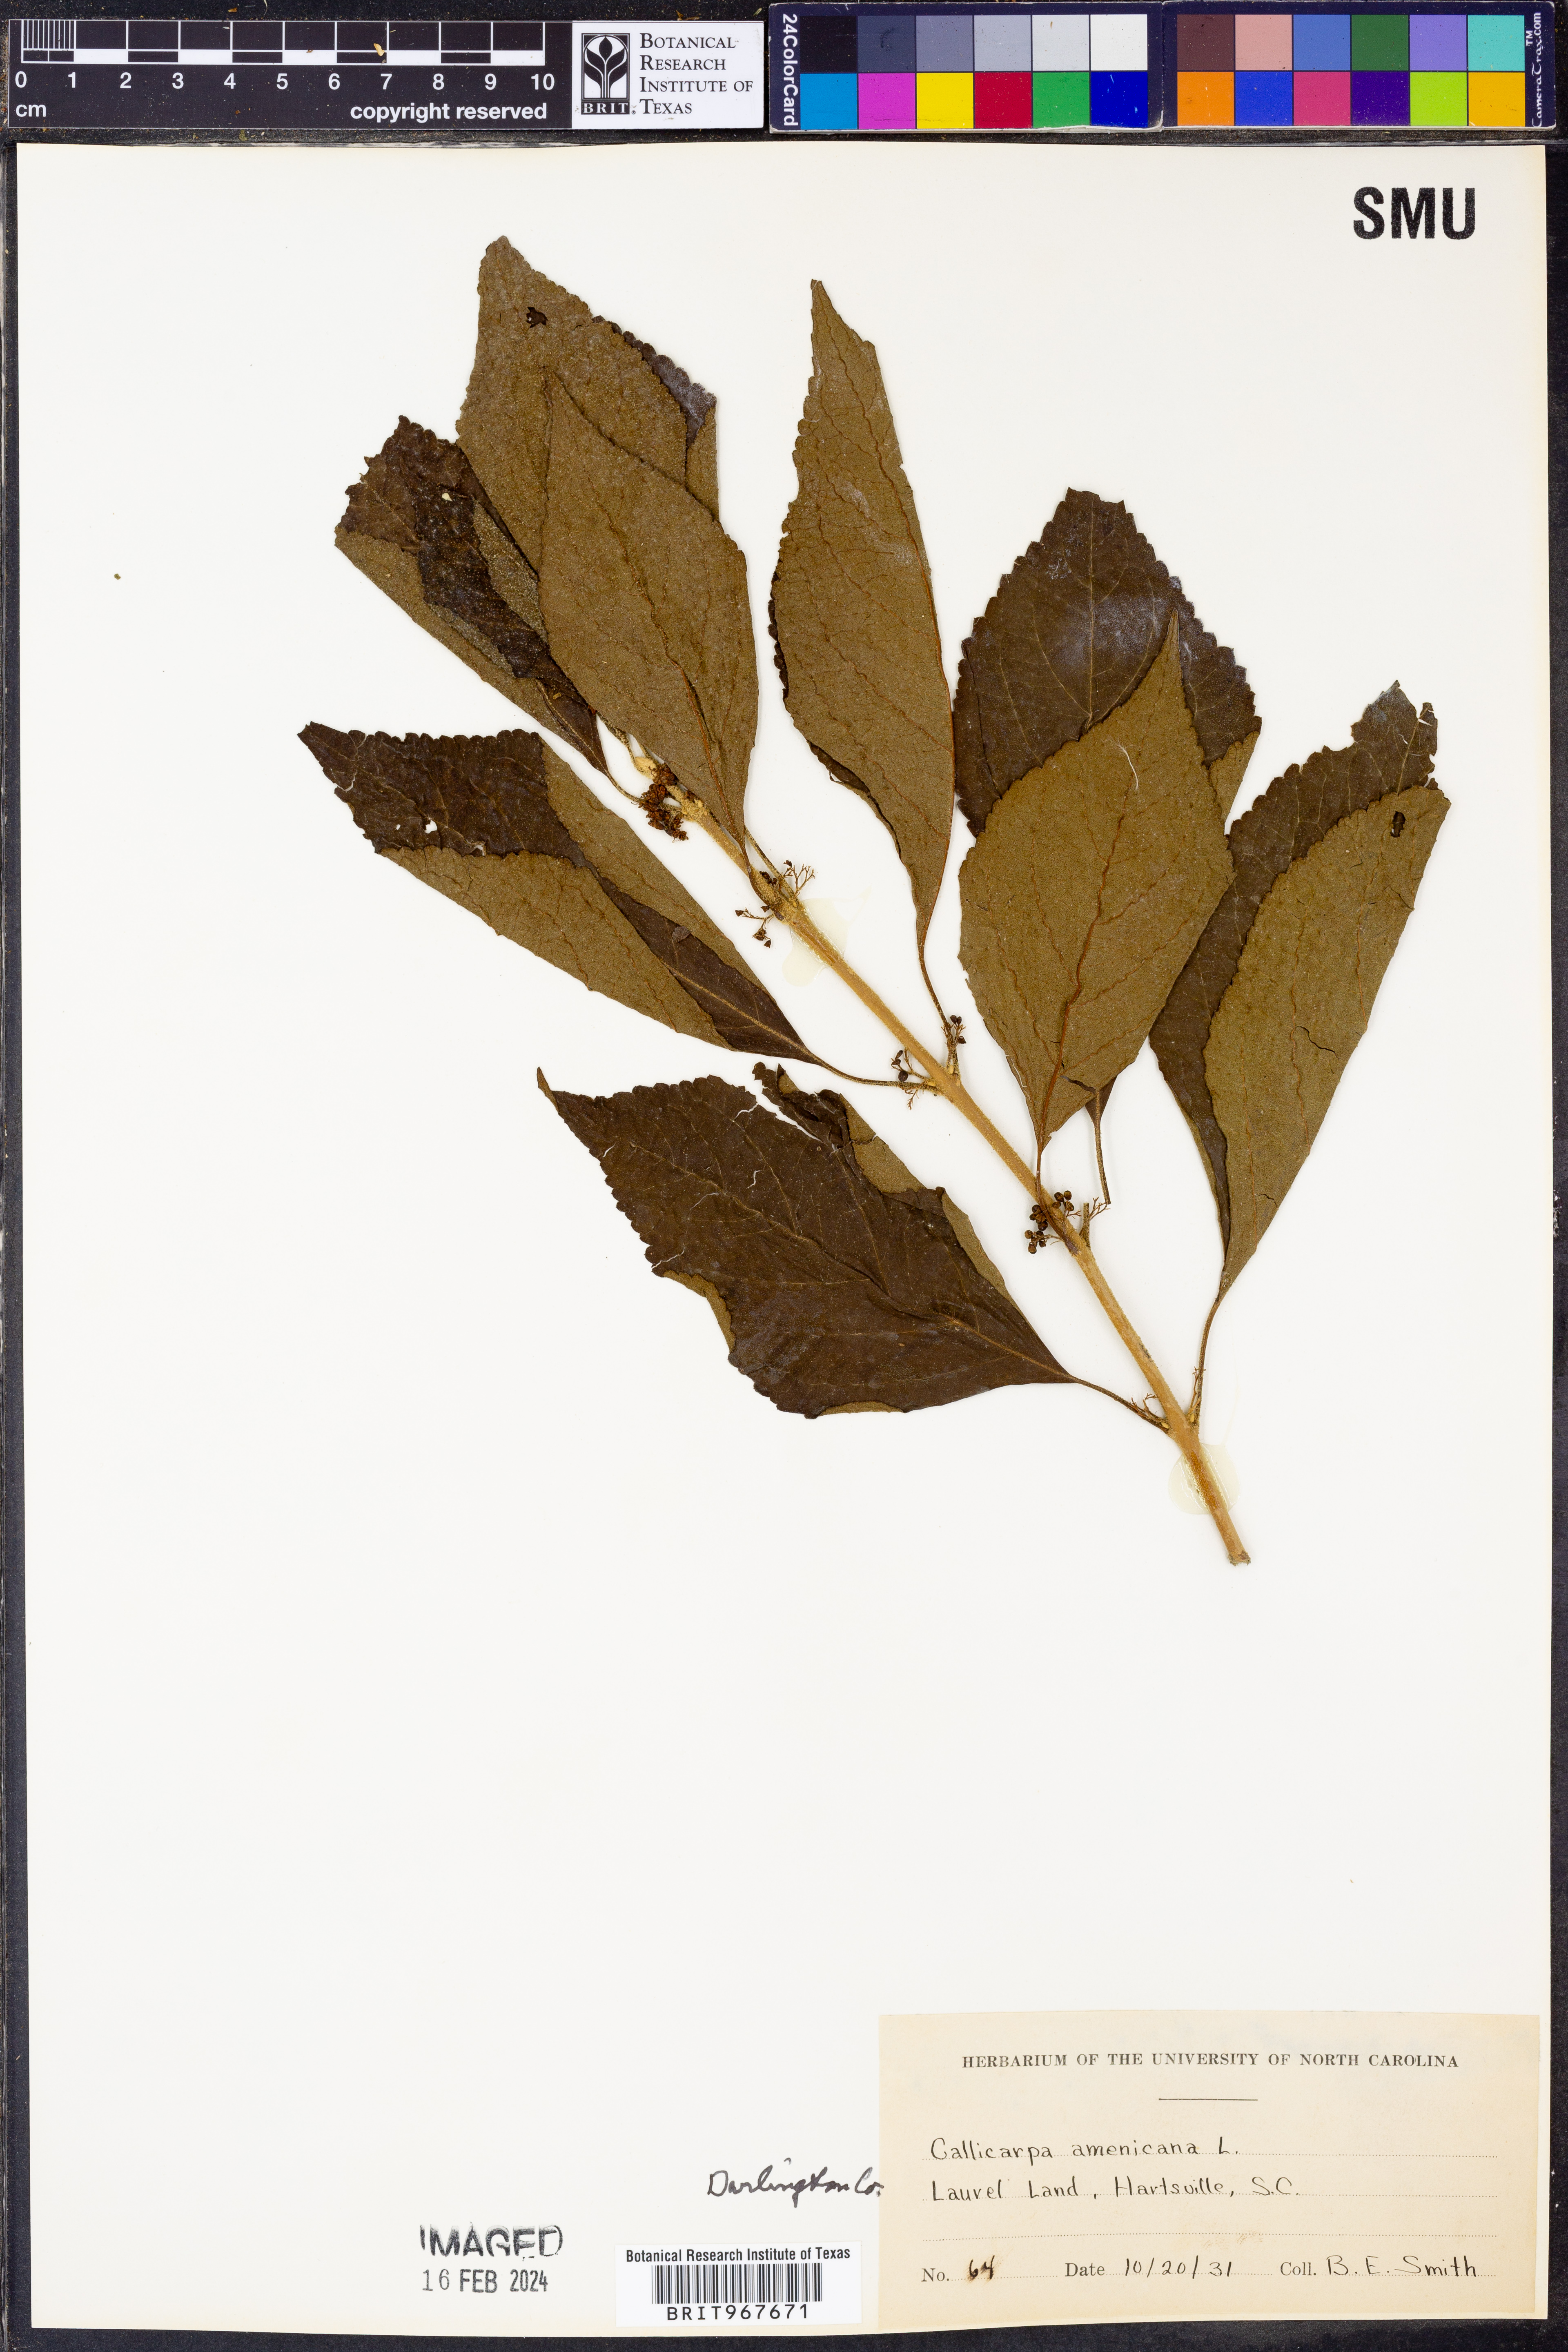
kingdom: Plantae
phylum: Tracheophyta
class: Magnoliopsida
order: Lamiales
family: Lamiaceae
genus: Callicarpa
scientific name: Callicarpa americana
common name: American beautyberry
